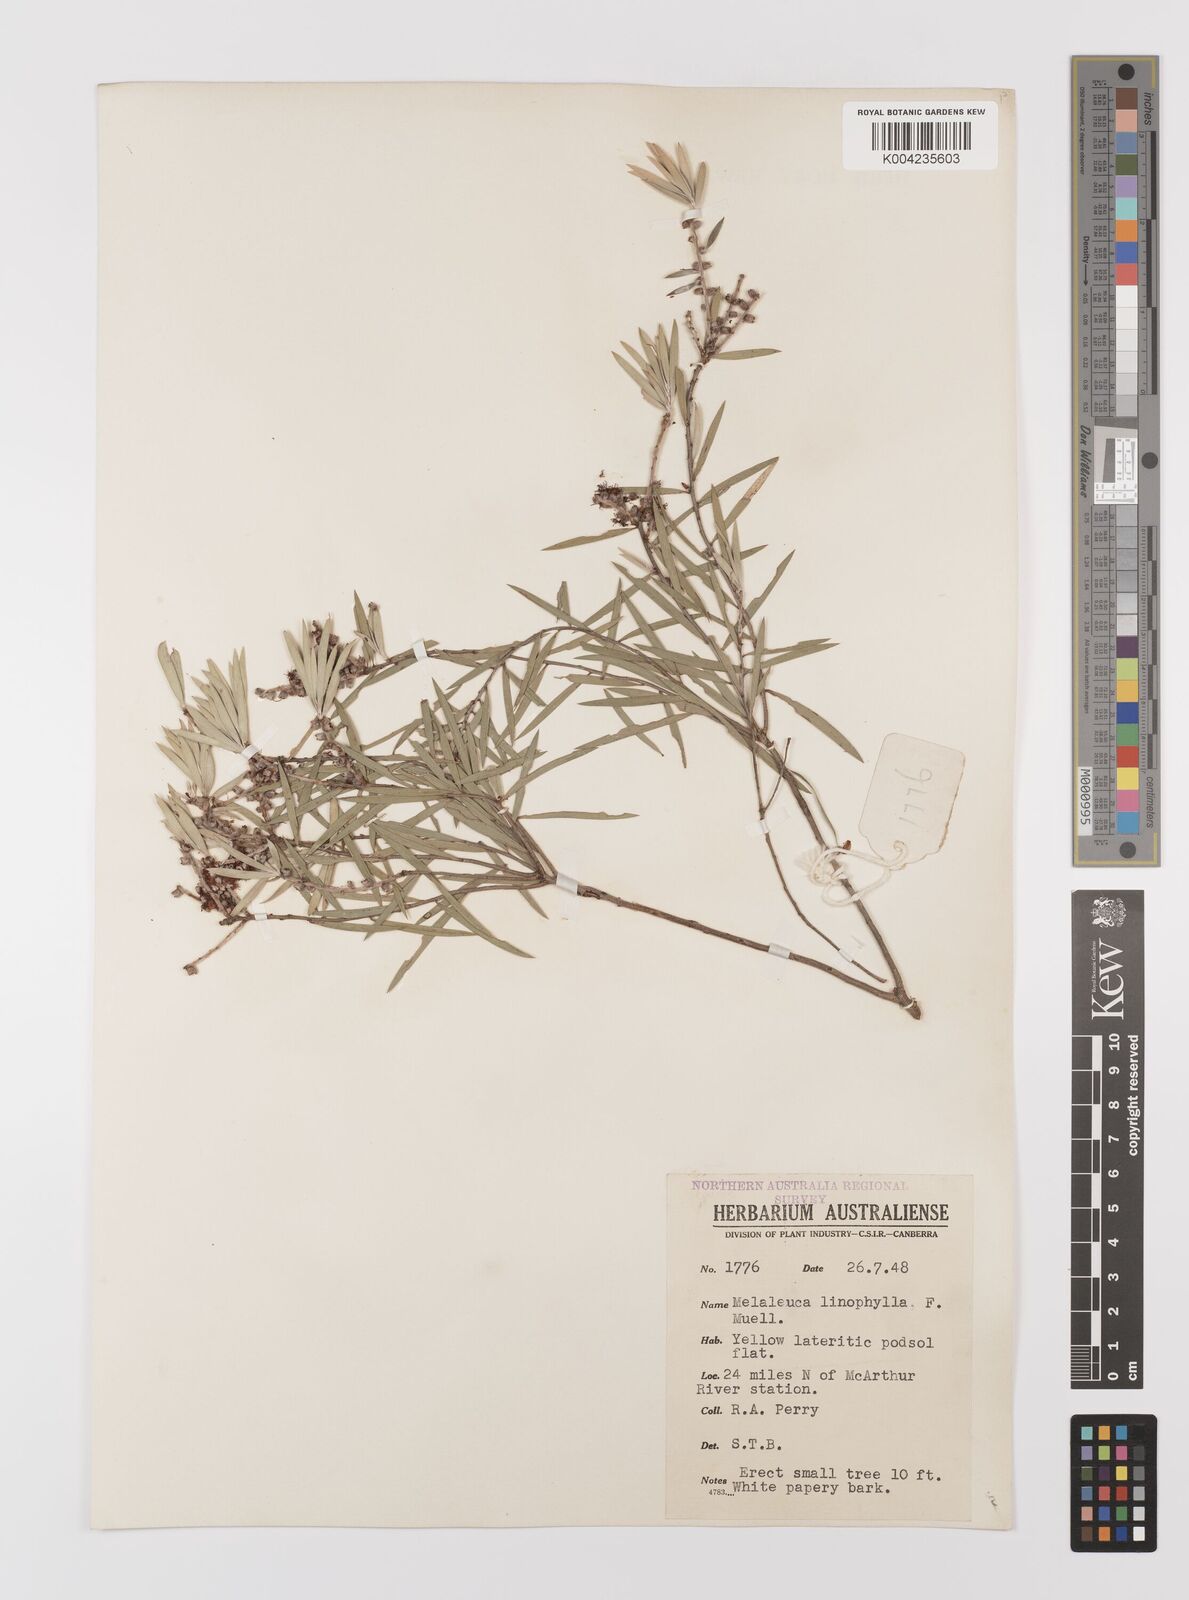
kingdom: Plantae
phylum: Tracheophyta
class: Magnoliopsida
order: Myrtales
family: Myrtaceae
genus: Melaleuca
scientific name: Melaleuca linophylla
